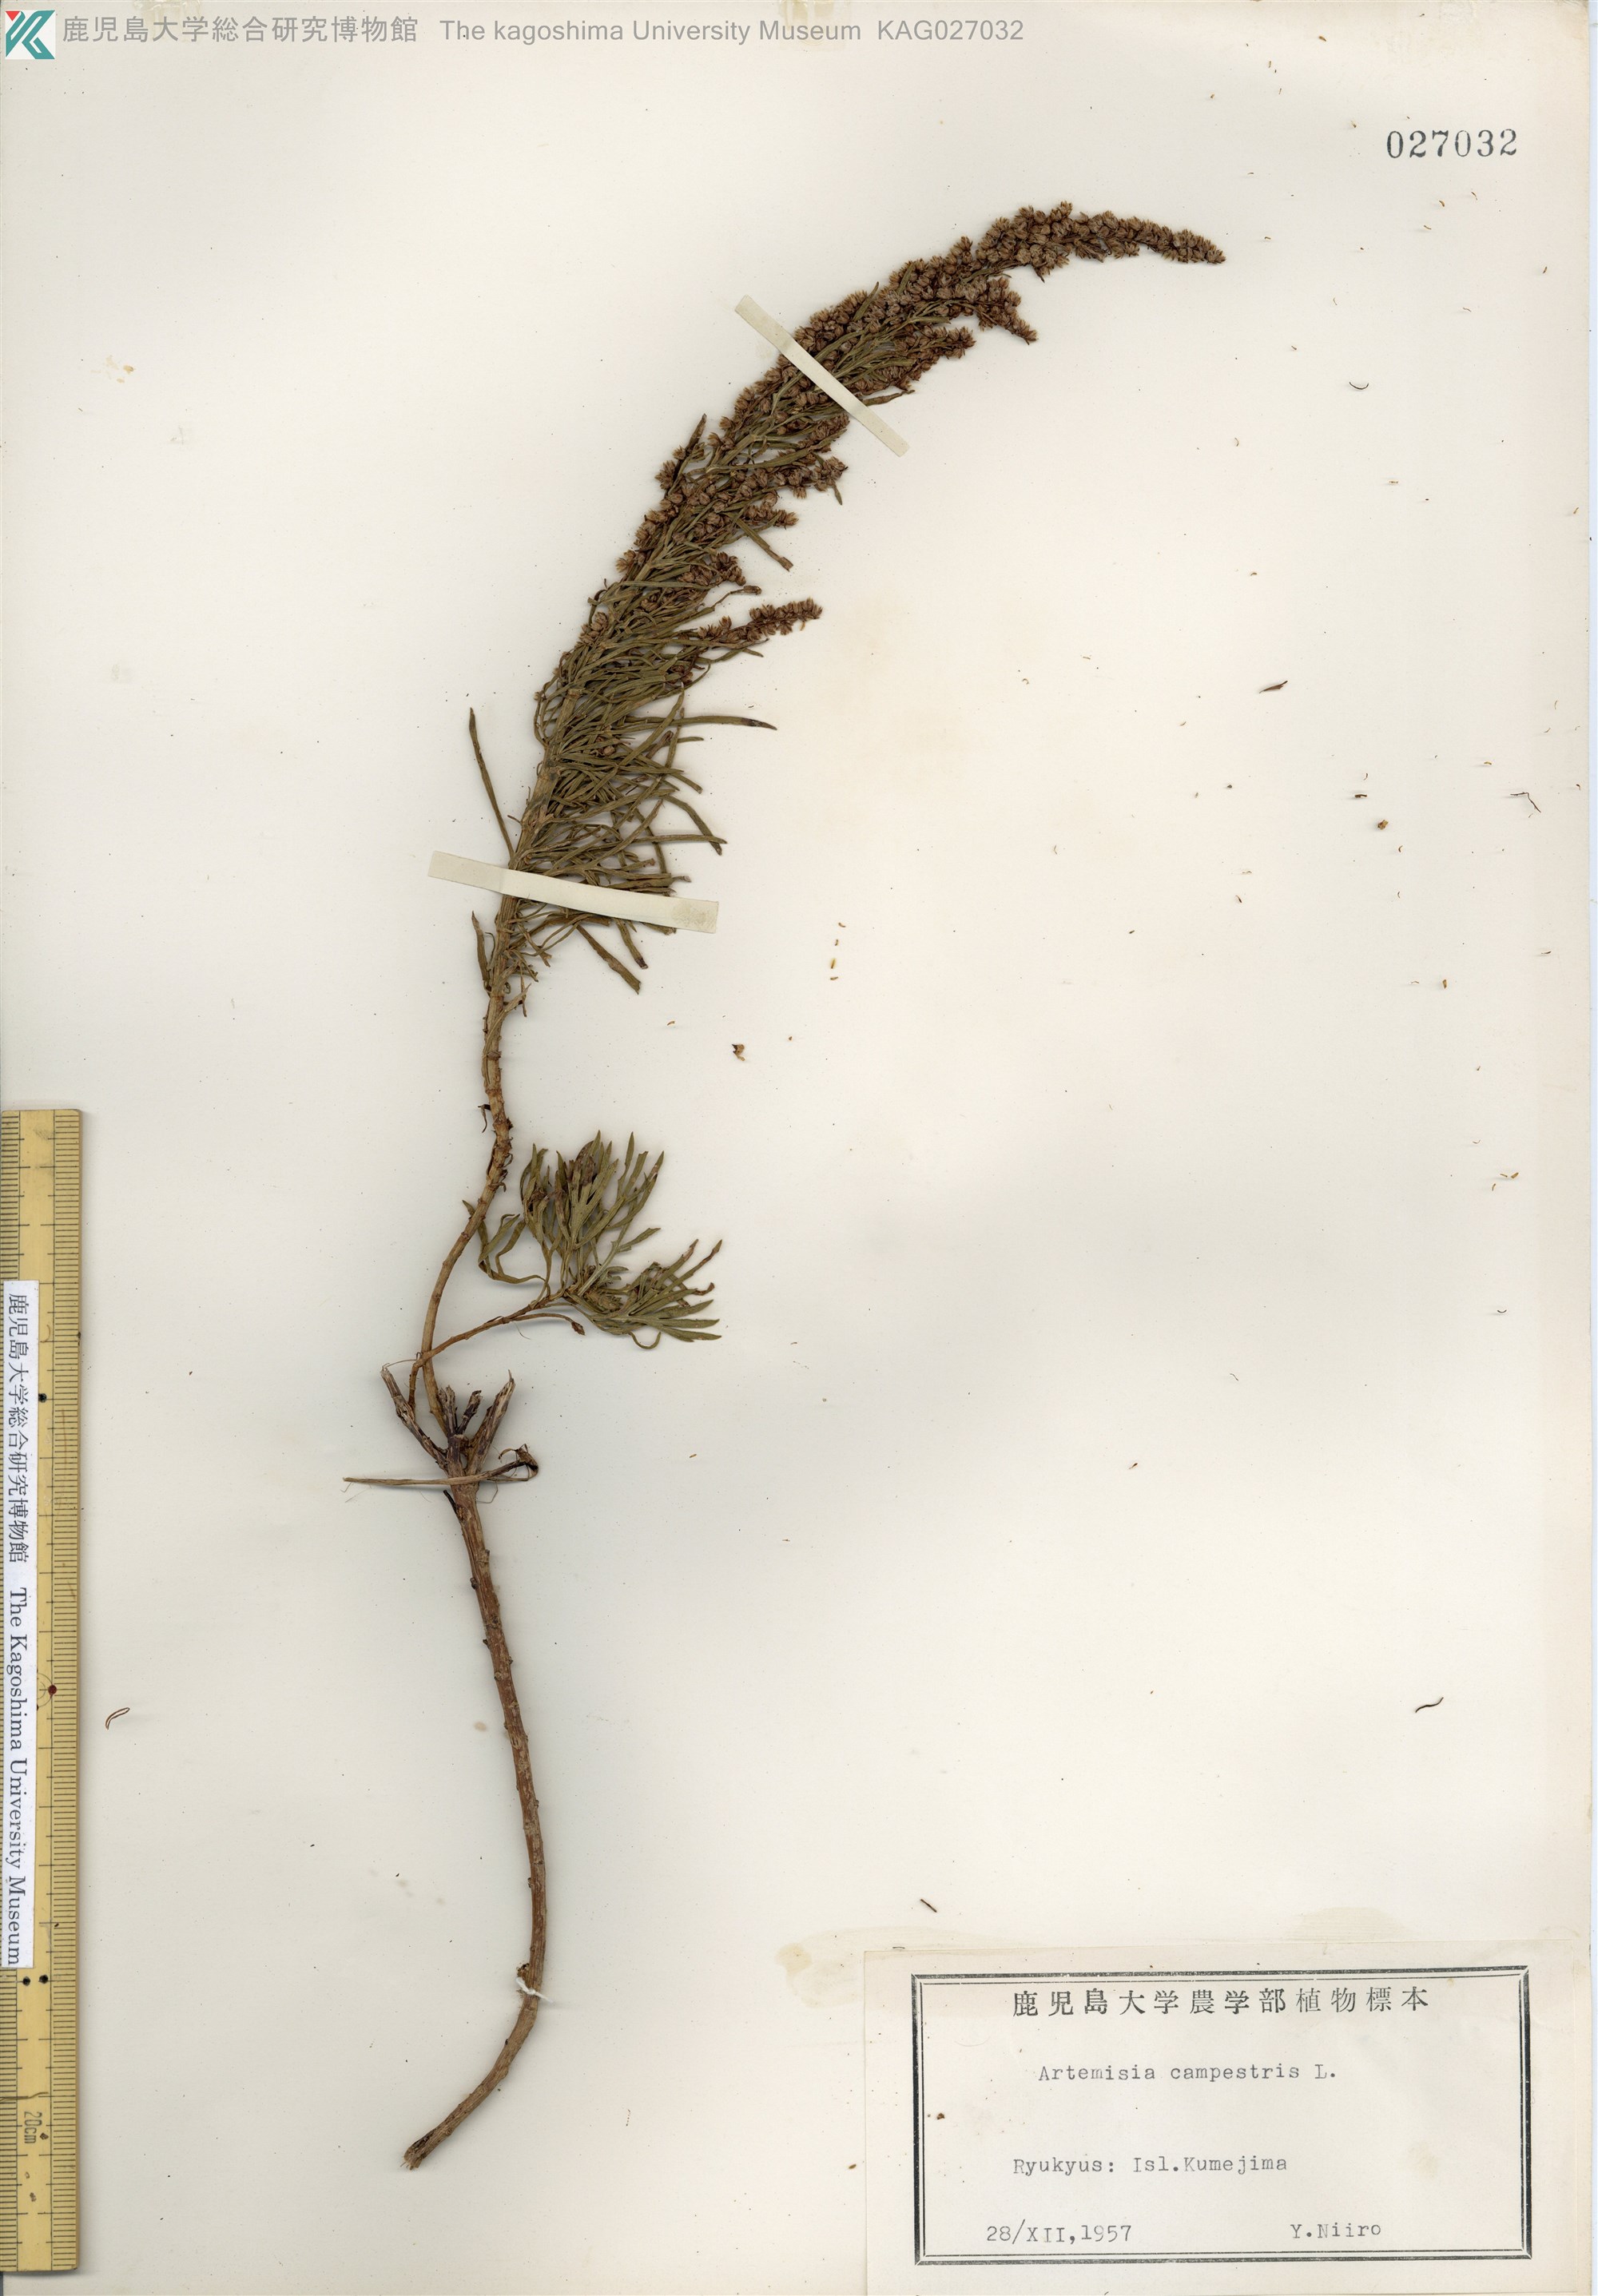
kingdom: Plantae
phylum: Tracheophyta
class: Magnoliopsida
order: Asterales
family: Asteraceae
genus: Artemisia
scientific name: Artemisia morrisonensis
